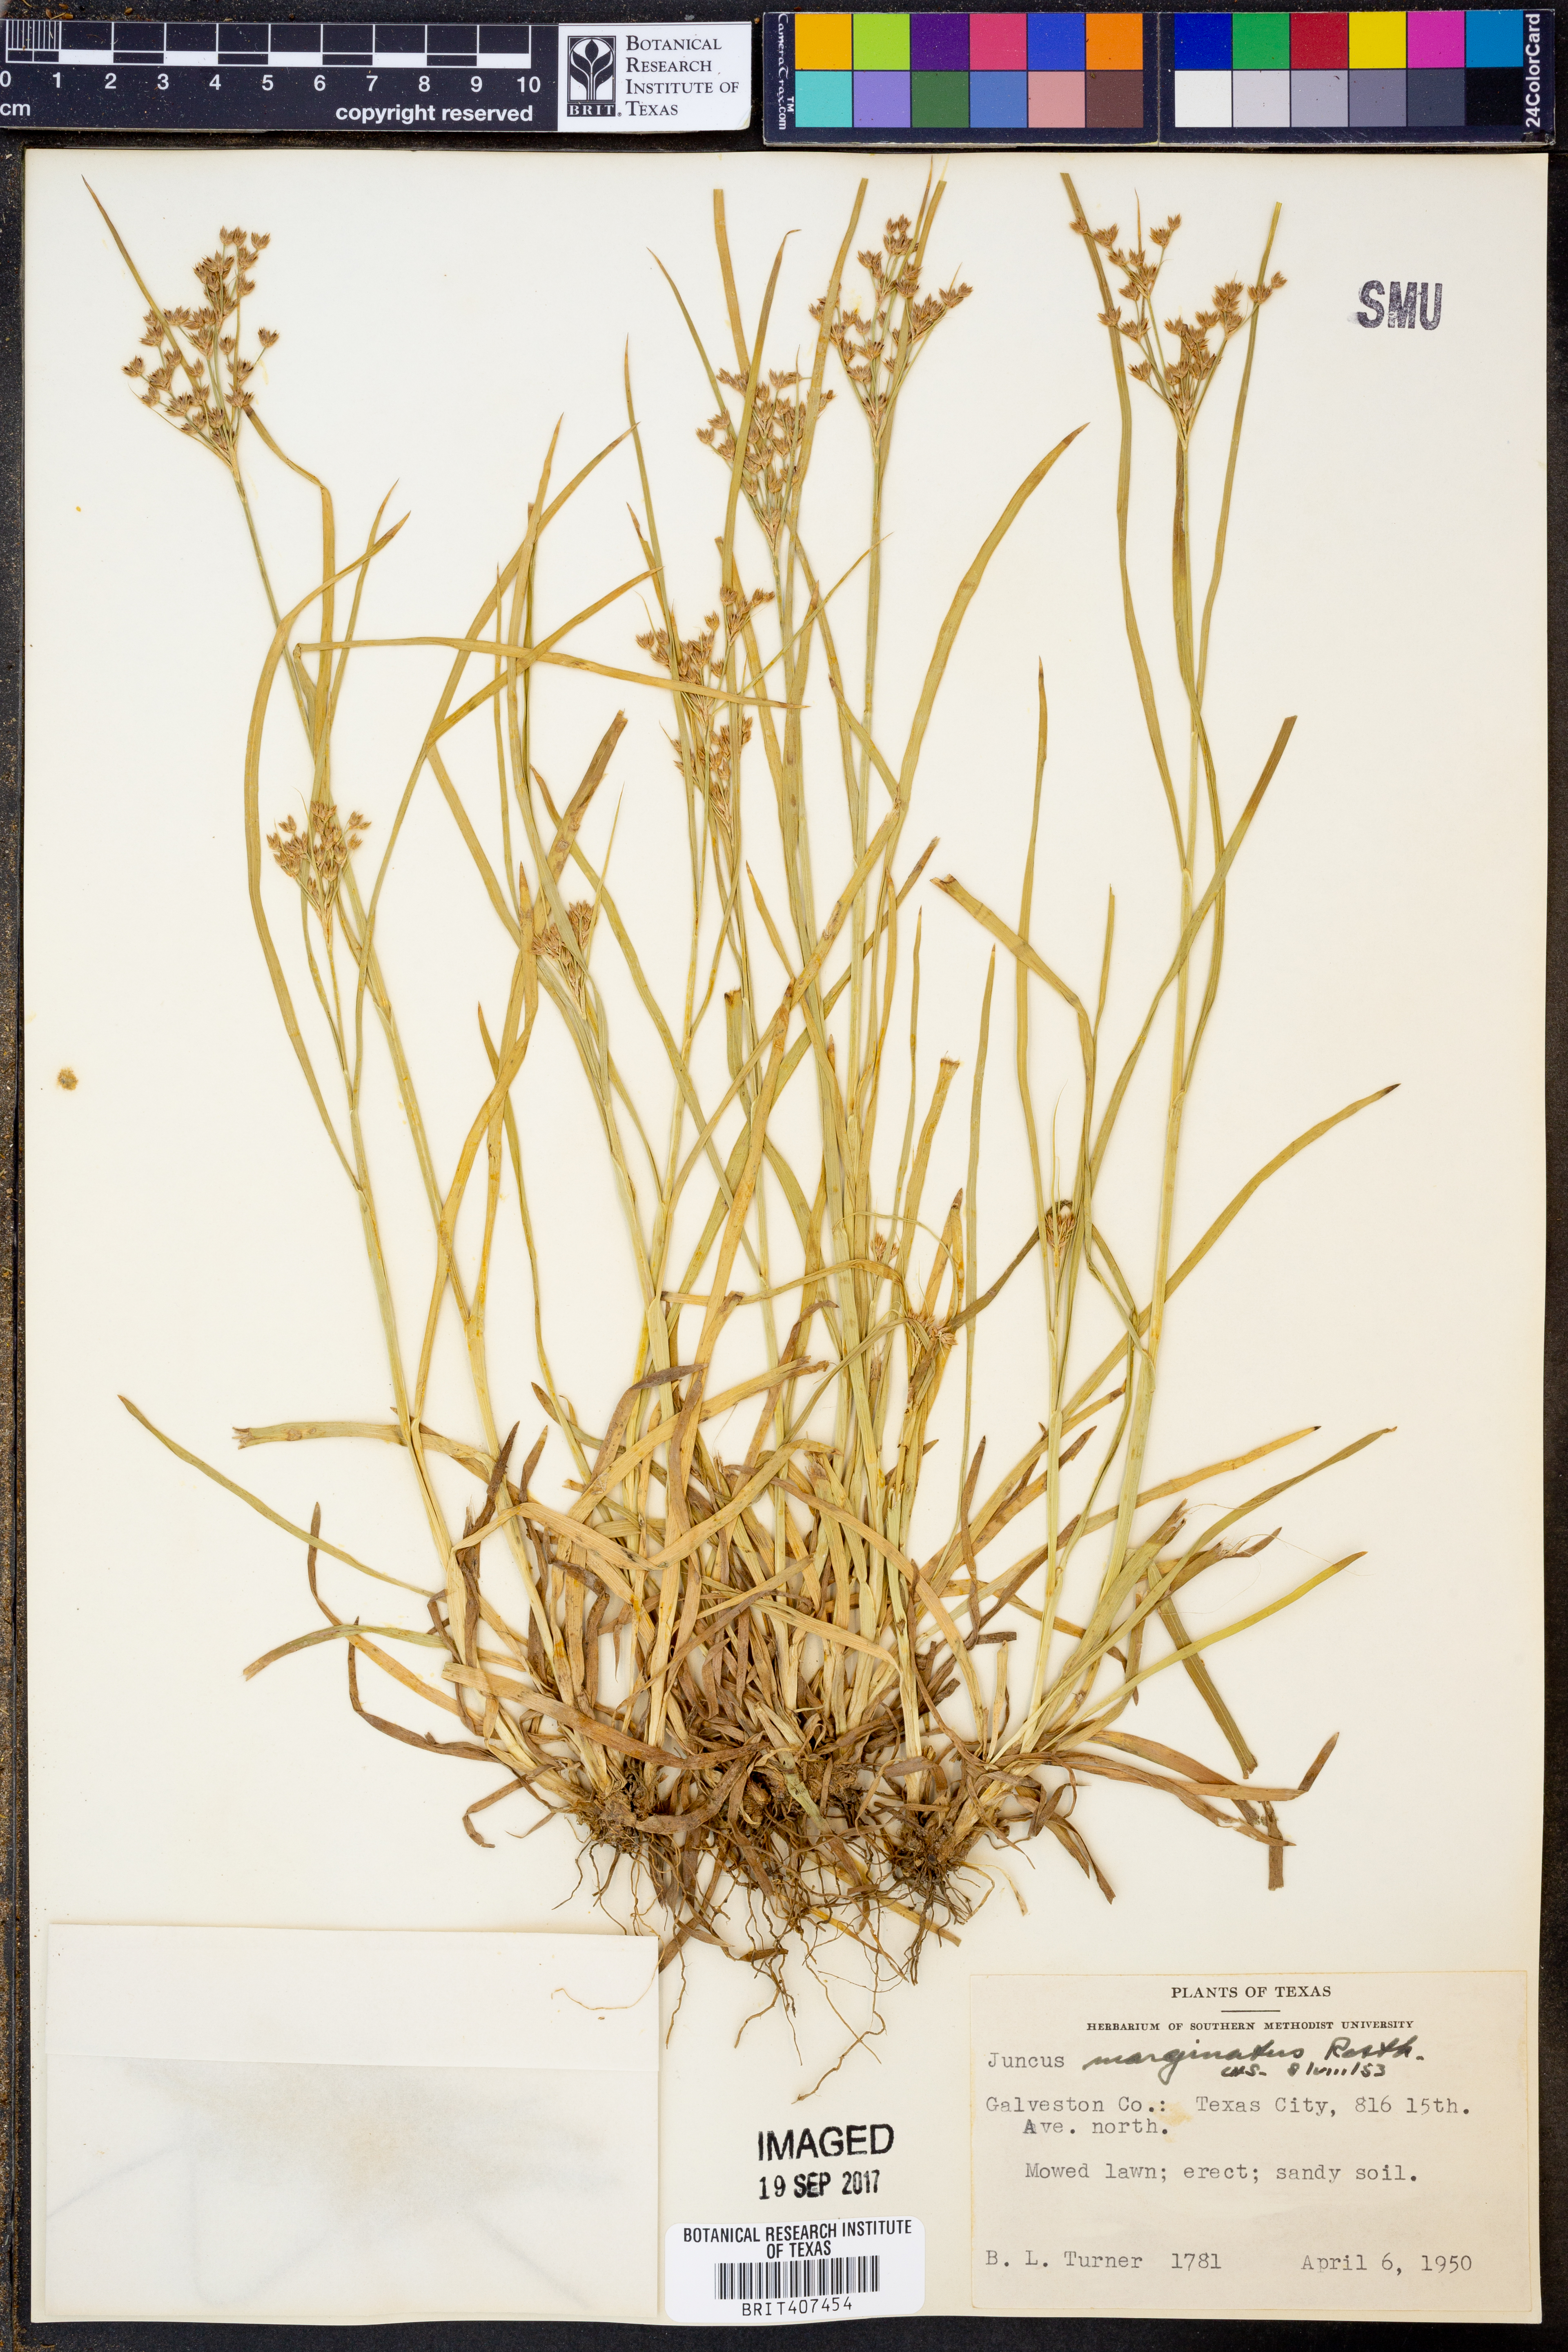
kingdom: Plantae
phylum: Tracheophyta
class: Liliopsida
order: Poales
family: Juncaceae
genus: Juncus
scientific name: Juncus marginatus
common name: Grass-leaf rush
